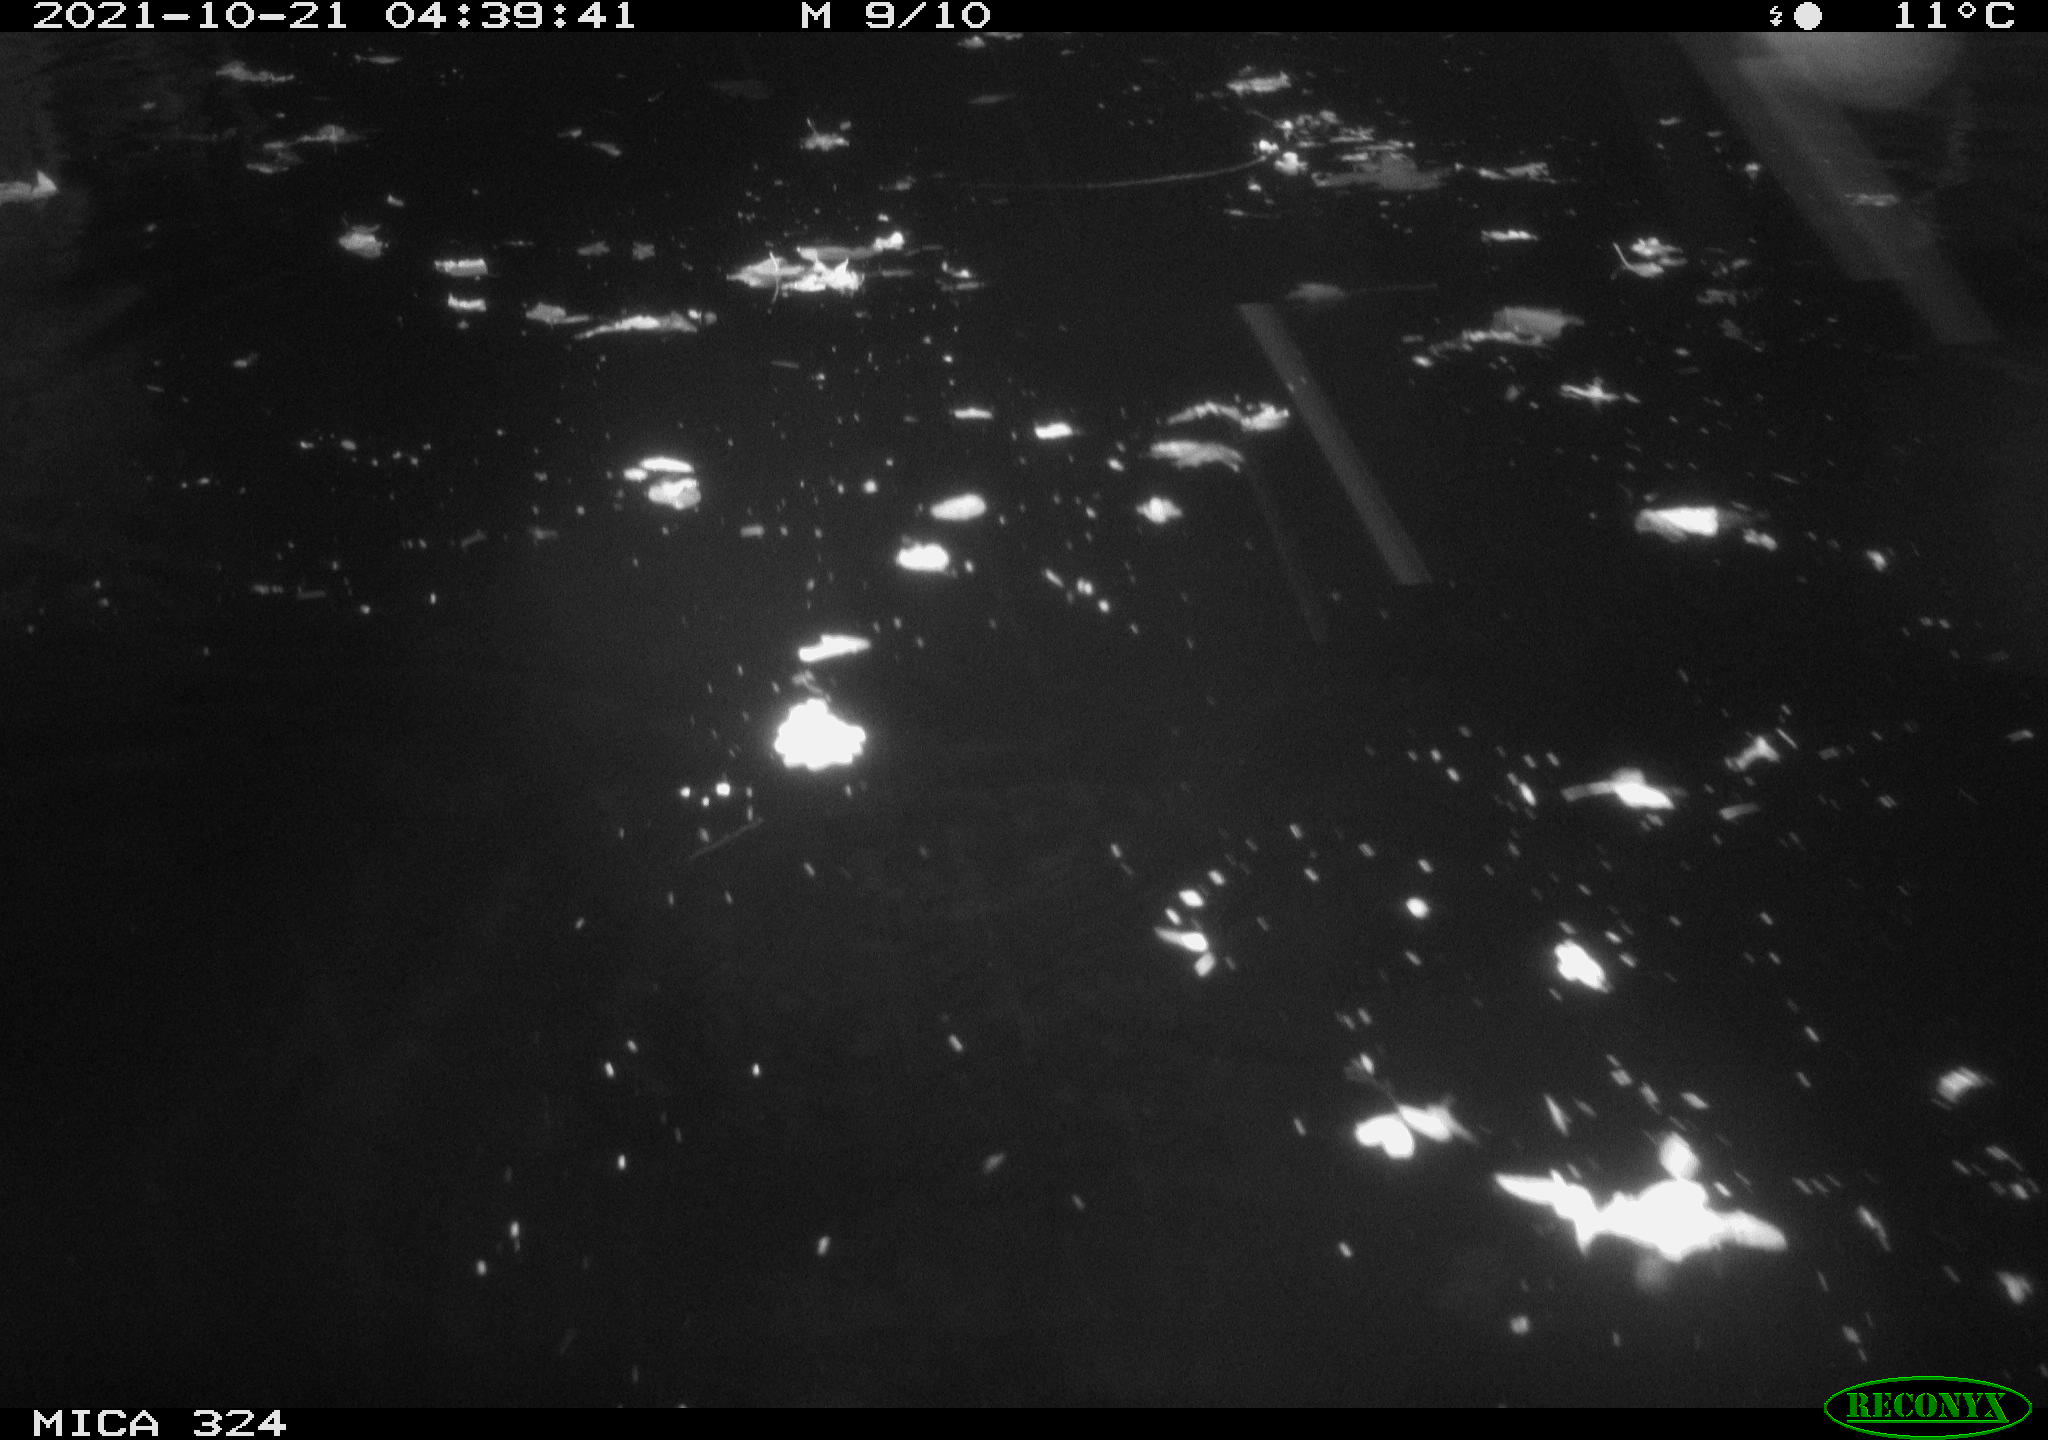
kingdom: Animalia
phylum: Chordata
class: Mammalia
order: Rodentia
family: Cricetidae
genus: Ondatra
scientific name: Ondatra zibethicus
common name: Muskrat
